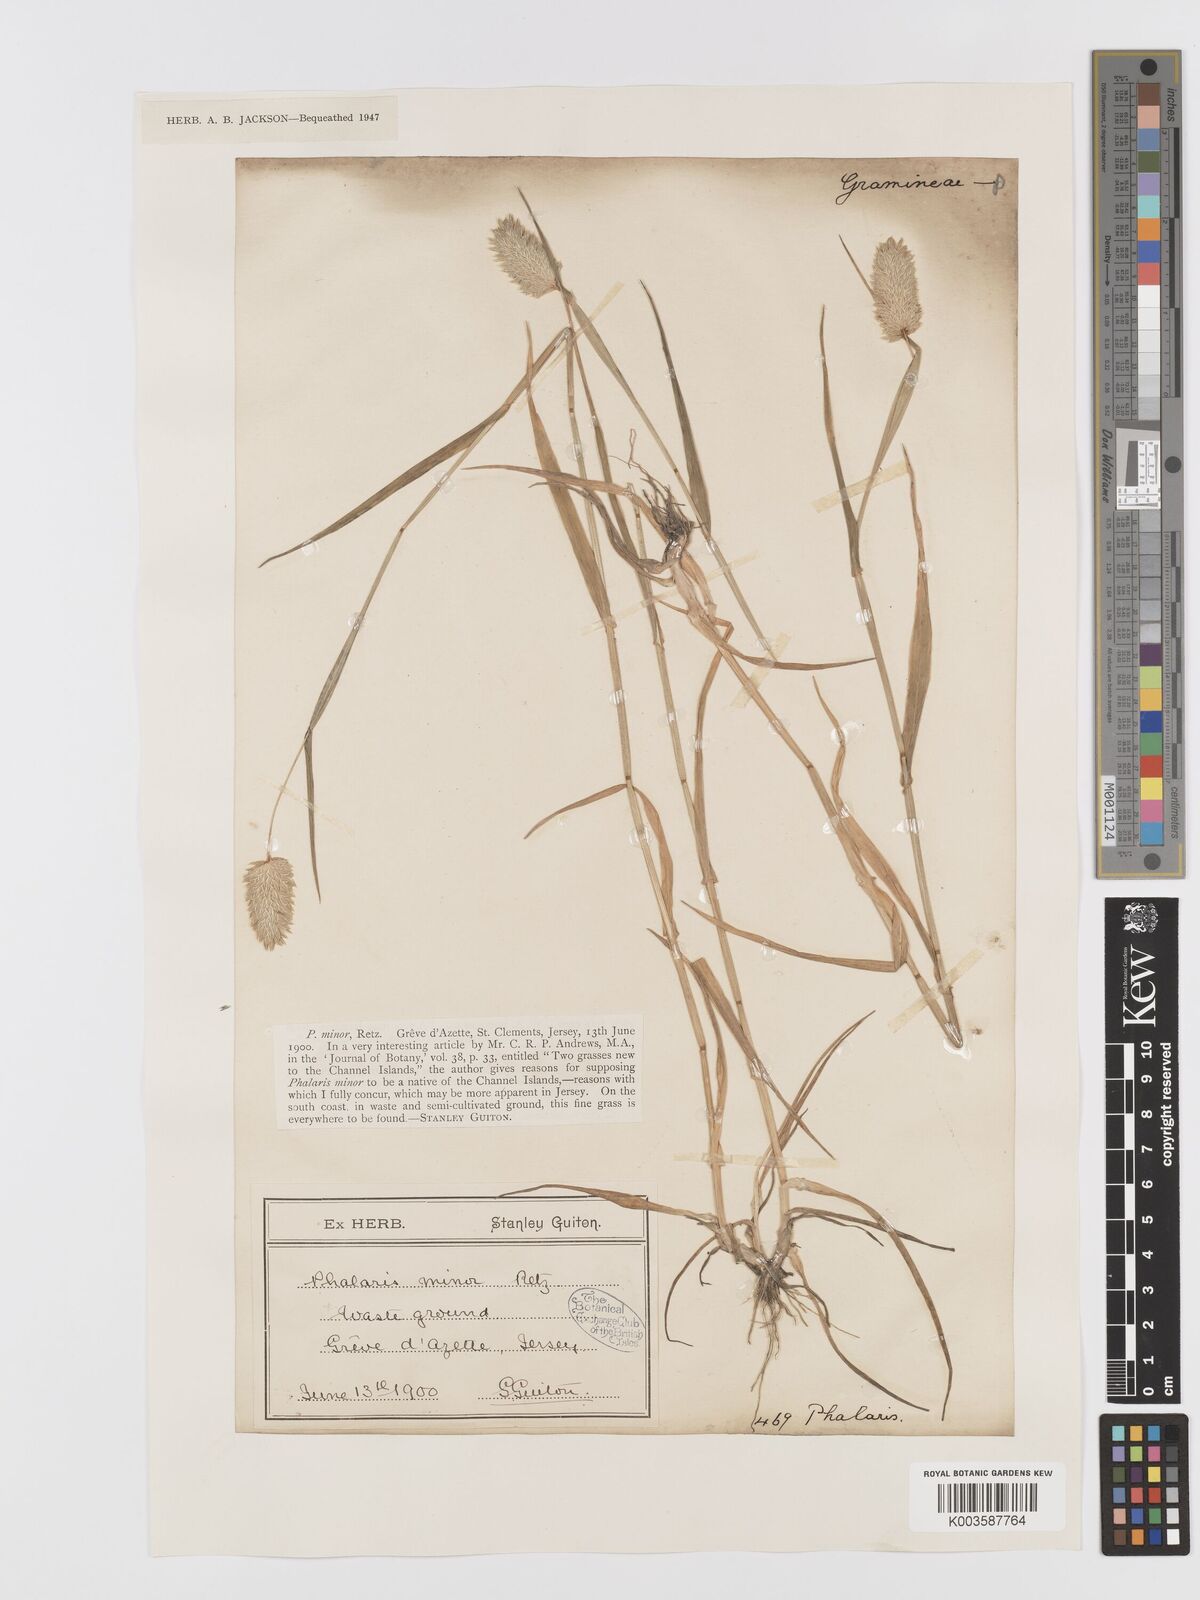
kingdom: Plantae
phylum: Tracheophyta
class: Liliopsida
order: Poales
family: Poaceae
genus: Phalaris
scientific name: Phalaris minor
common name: Littleseed canarygrass
